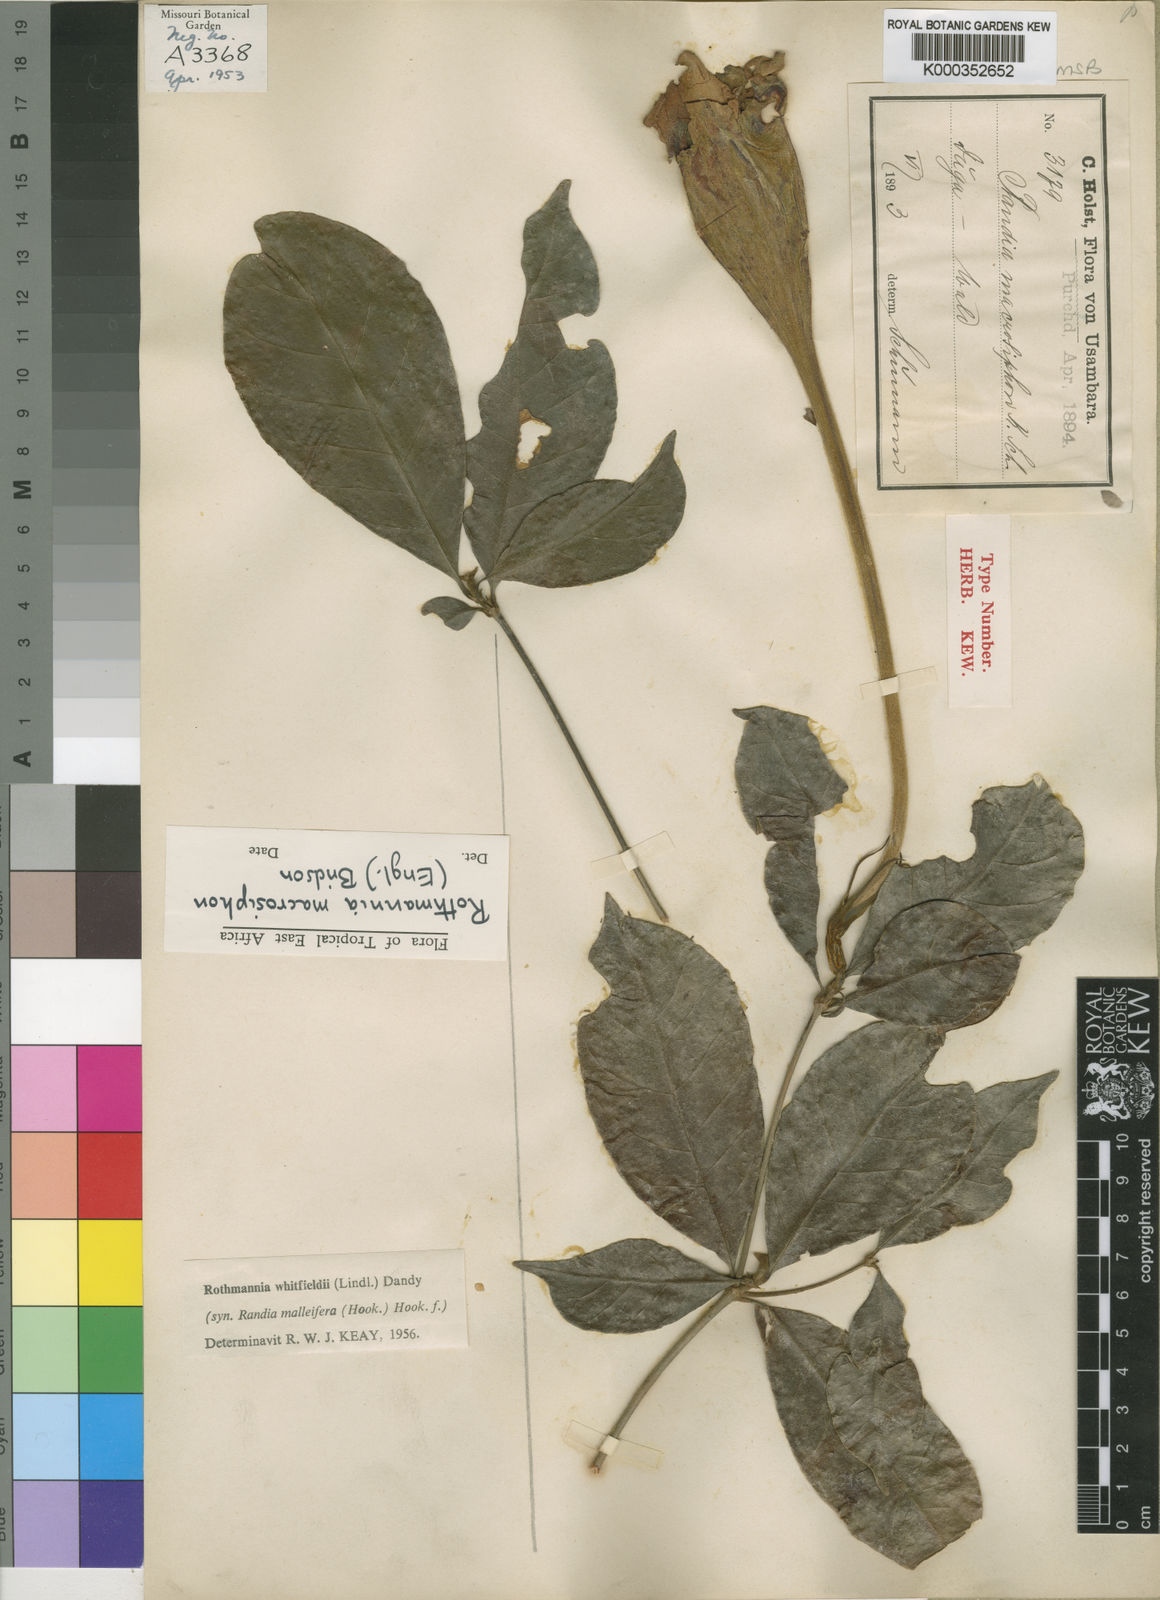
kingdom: Plantae
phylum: Tracheophyta
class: Magnoliopsida
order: Gentianales
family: Rubiaceae
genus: Rothmannia
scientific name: Rothmannia macrosiphon
